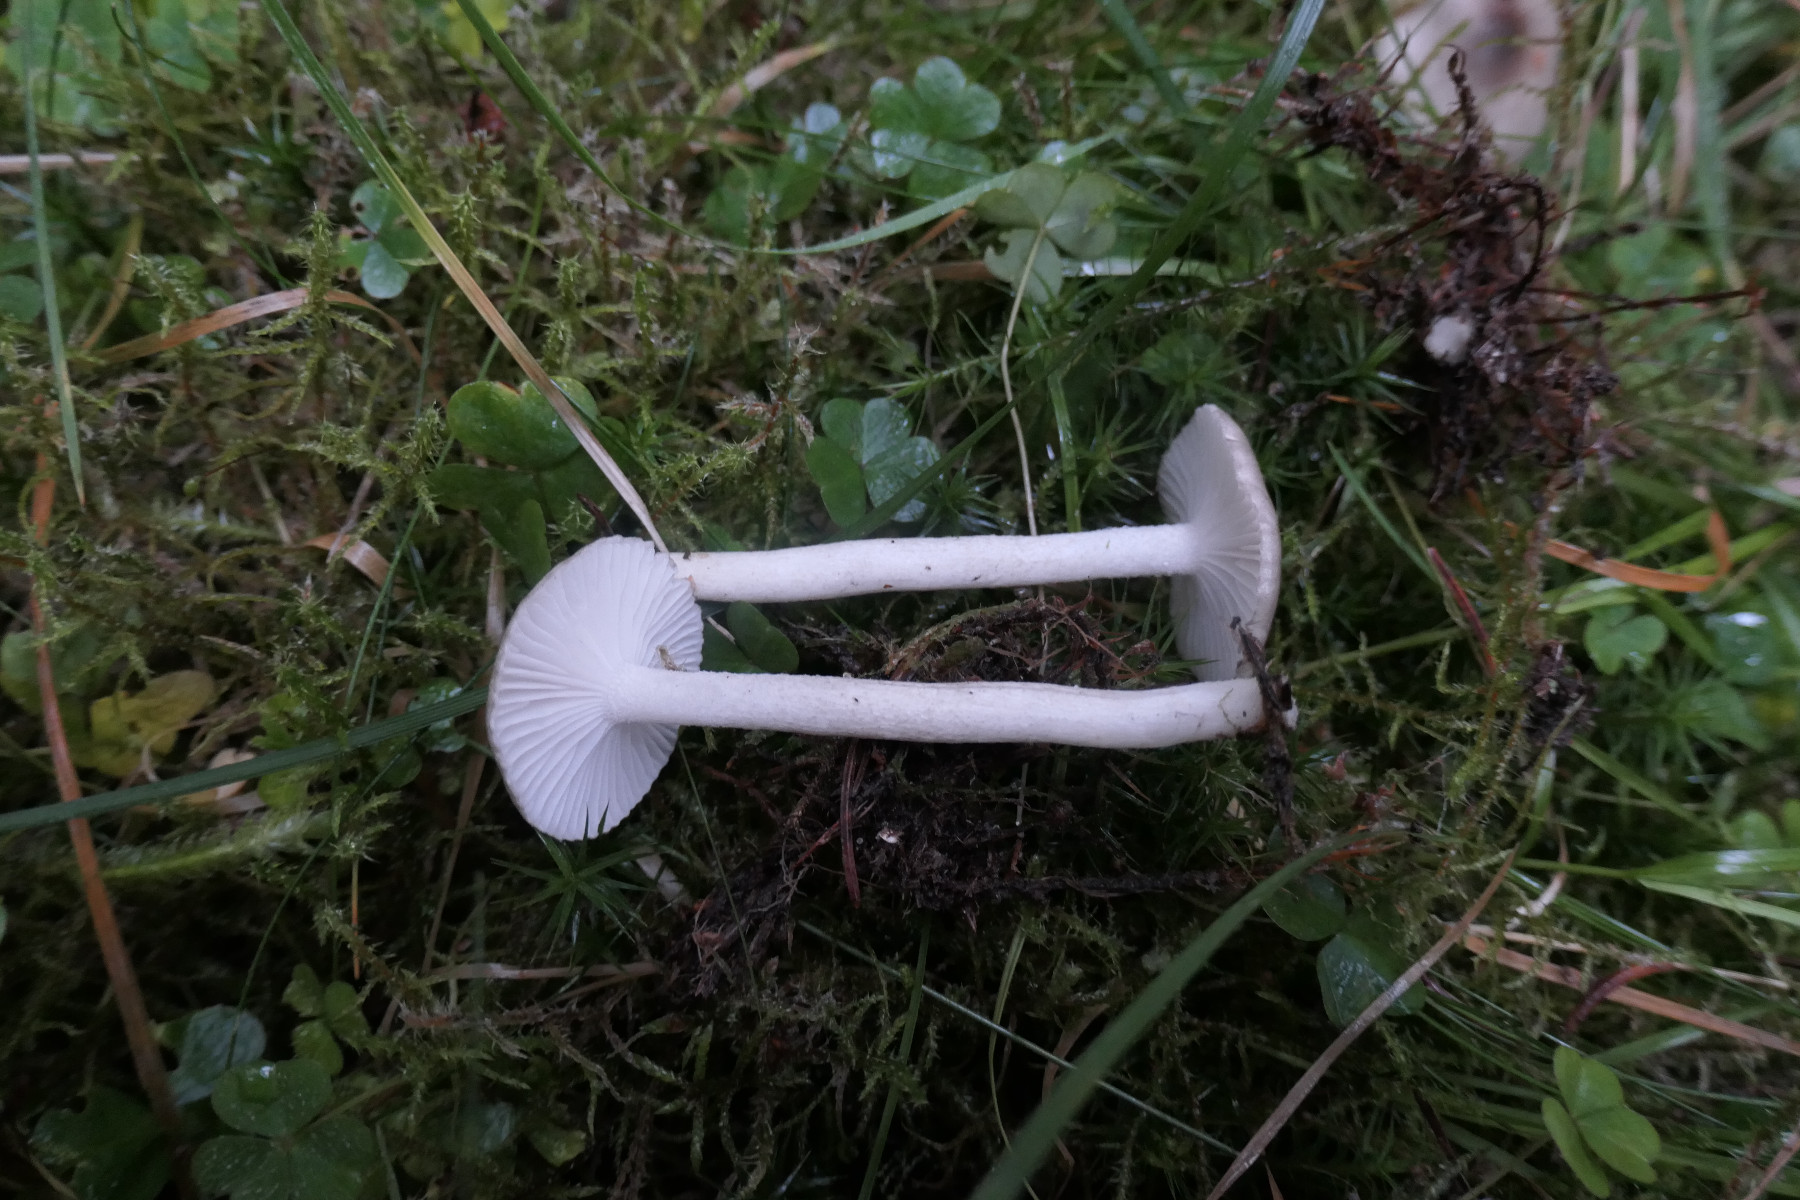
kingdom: Fungi
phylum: Basidiomycota
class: Agaricomycetes
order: Agaricales
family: Hygrophoraceae
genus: Hygrophorus
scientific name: Hygrophorus agathosmus
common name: vellugtende sneglehat
